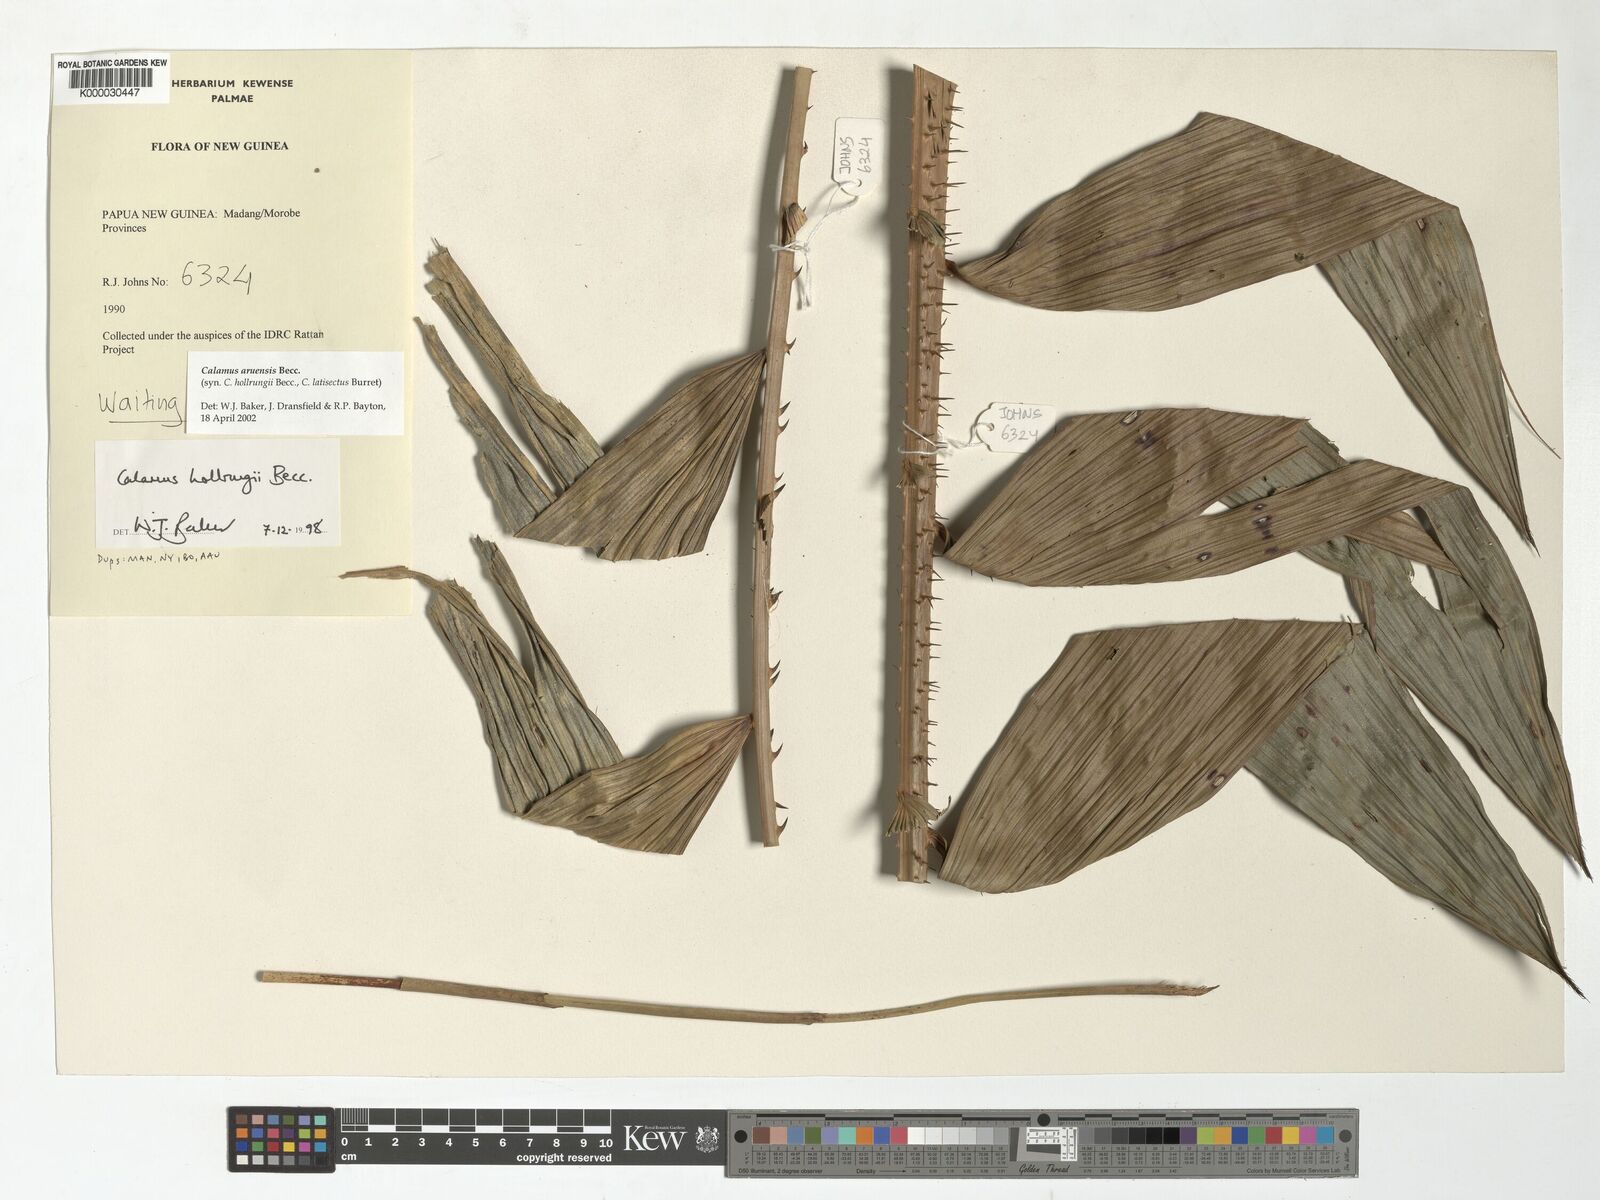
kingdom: Plantae
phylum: Tracheophyta
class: Liliopsida
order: Arecales
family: Arecaceae
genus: Calamus
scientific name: Calamus aruensis
